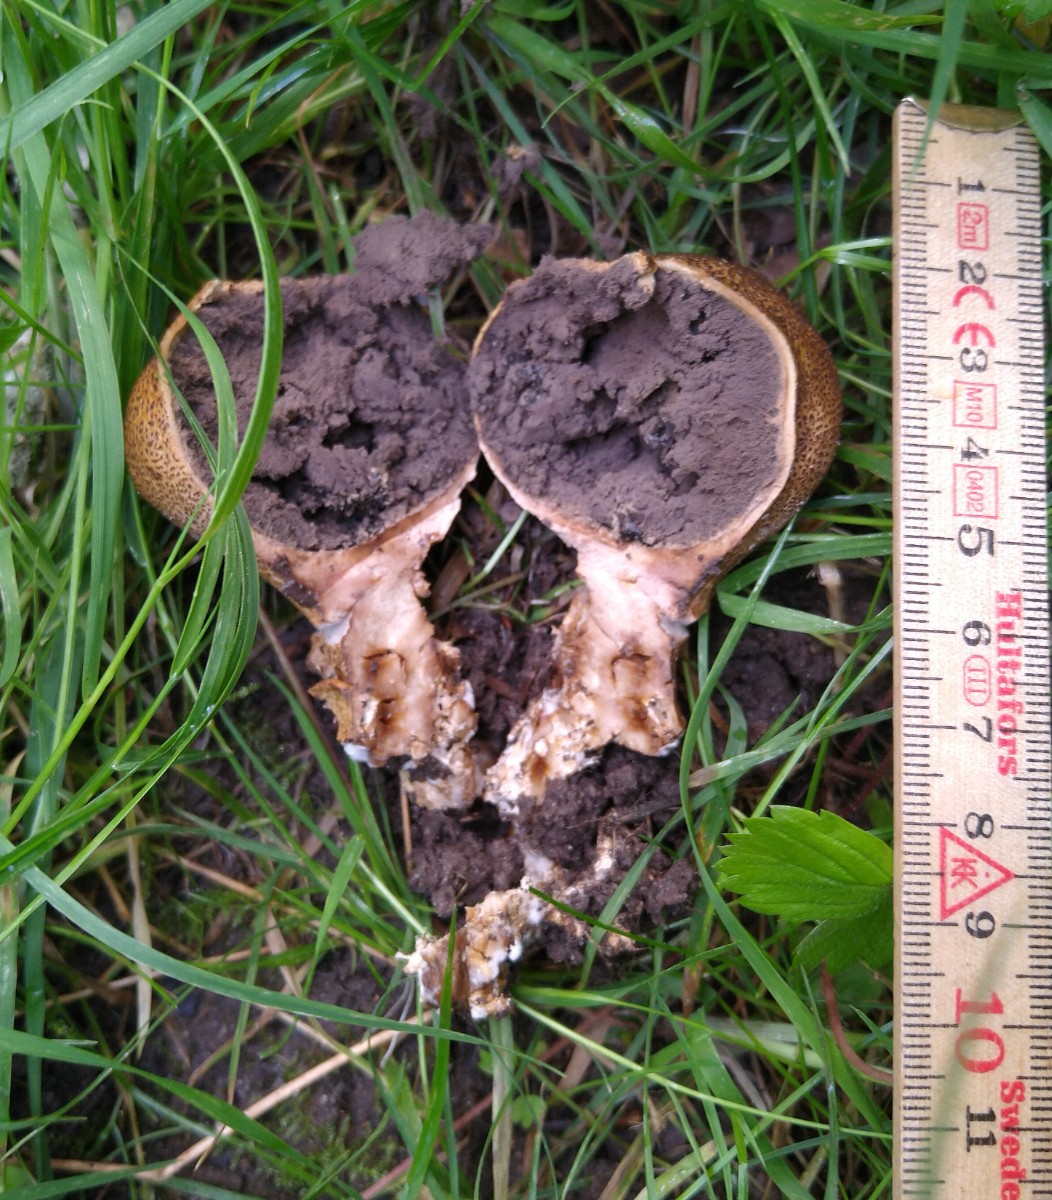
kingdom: Fungi
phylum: Basidiomycota
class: Agaricomycetes
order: Boletales
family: Sclerodermataceae
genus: Scleroderma
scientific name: Scleroderma verrucosum
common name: stilket bruskbold
